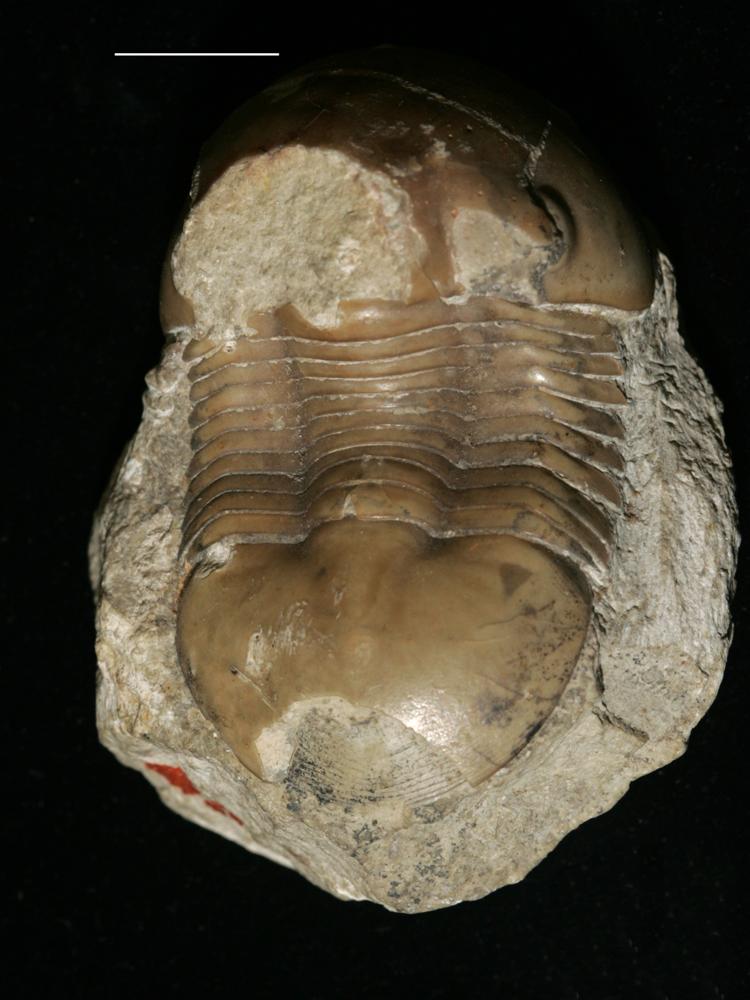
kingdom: Animalia
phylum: Arthropoda
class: Trilobita
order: Corynexochida
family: Illaenidae
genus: Illaenus
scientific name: Illaenus
